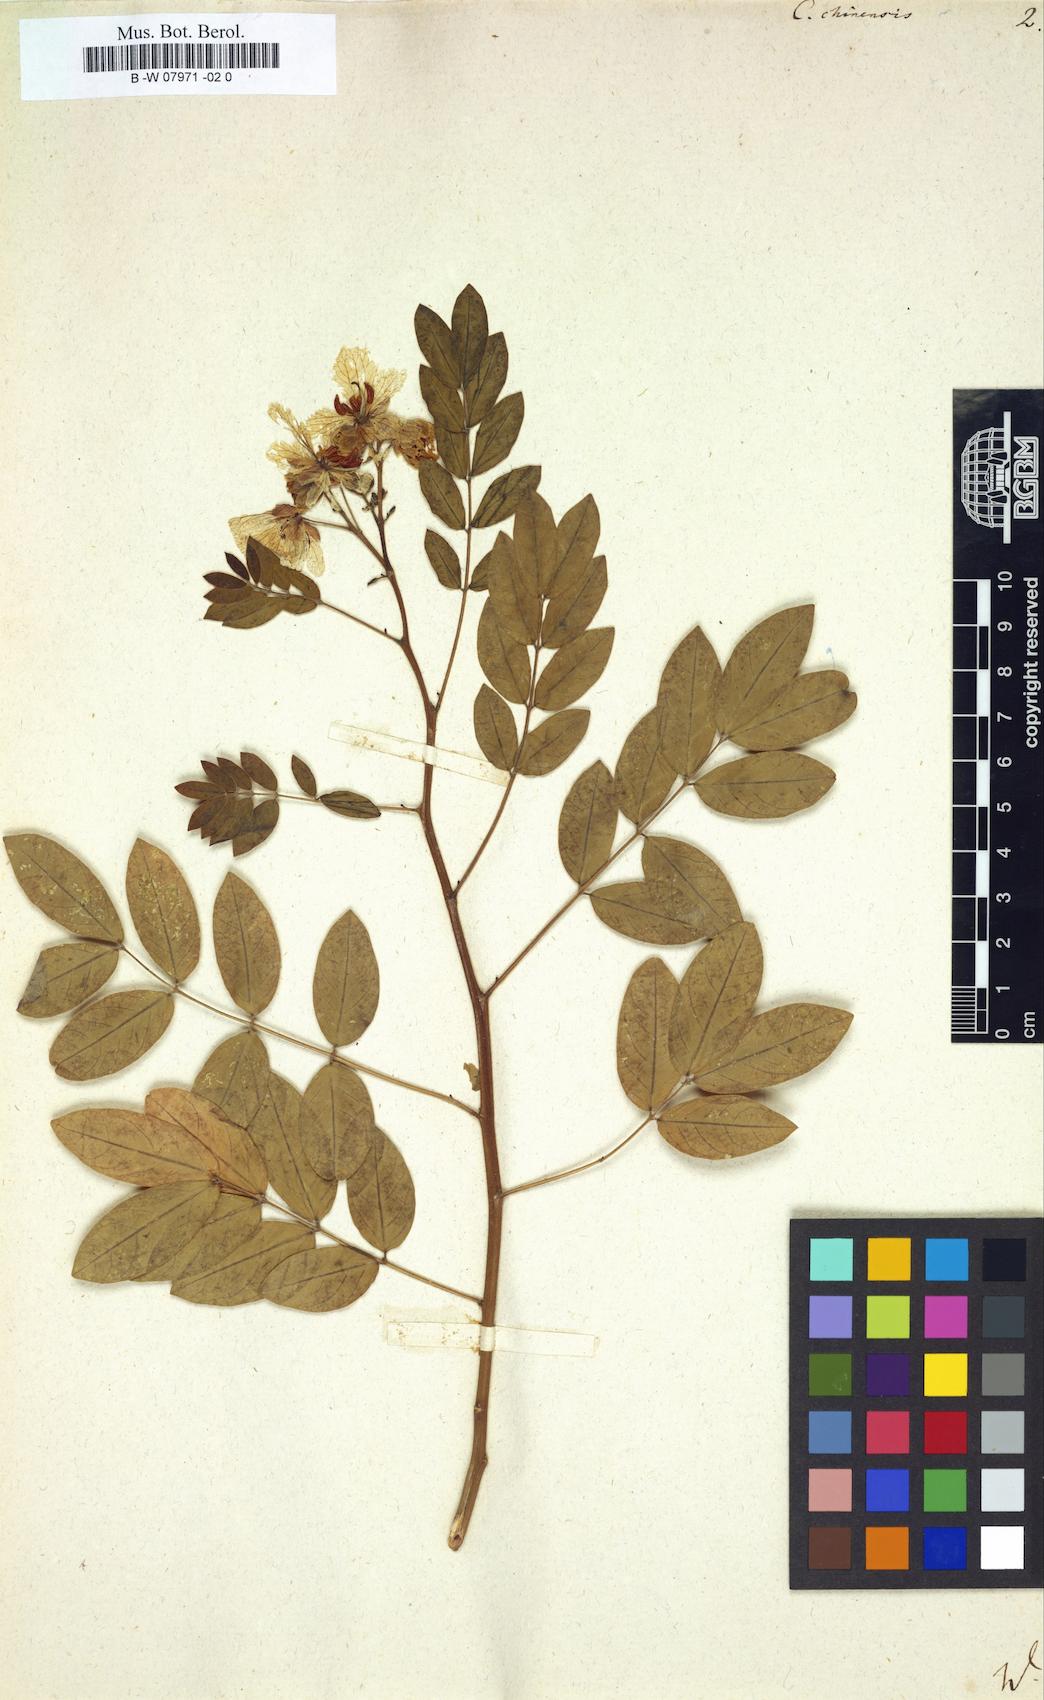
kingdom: Plantae
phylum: Tracheophyta
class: Magnoliopsida
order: Fabales
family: Fabaceae
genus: Senna
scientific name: Senna
